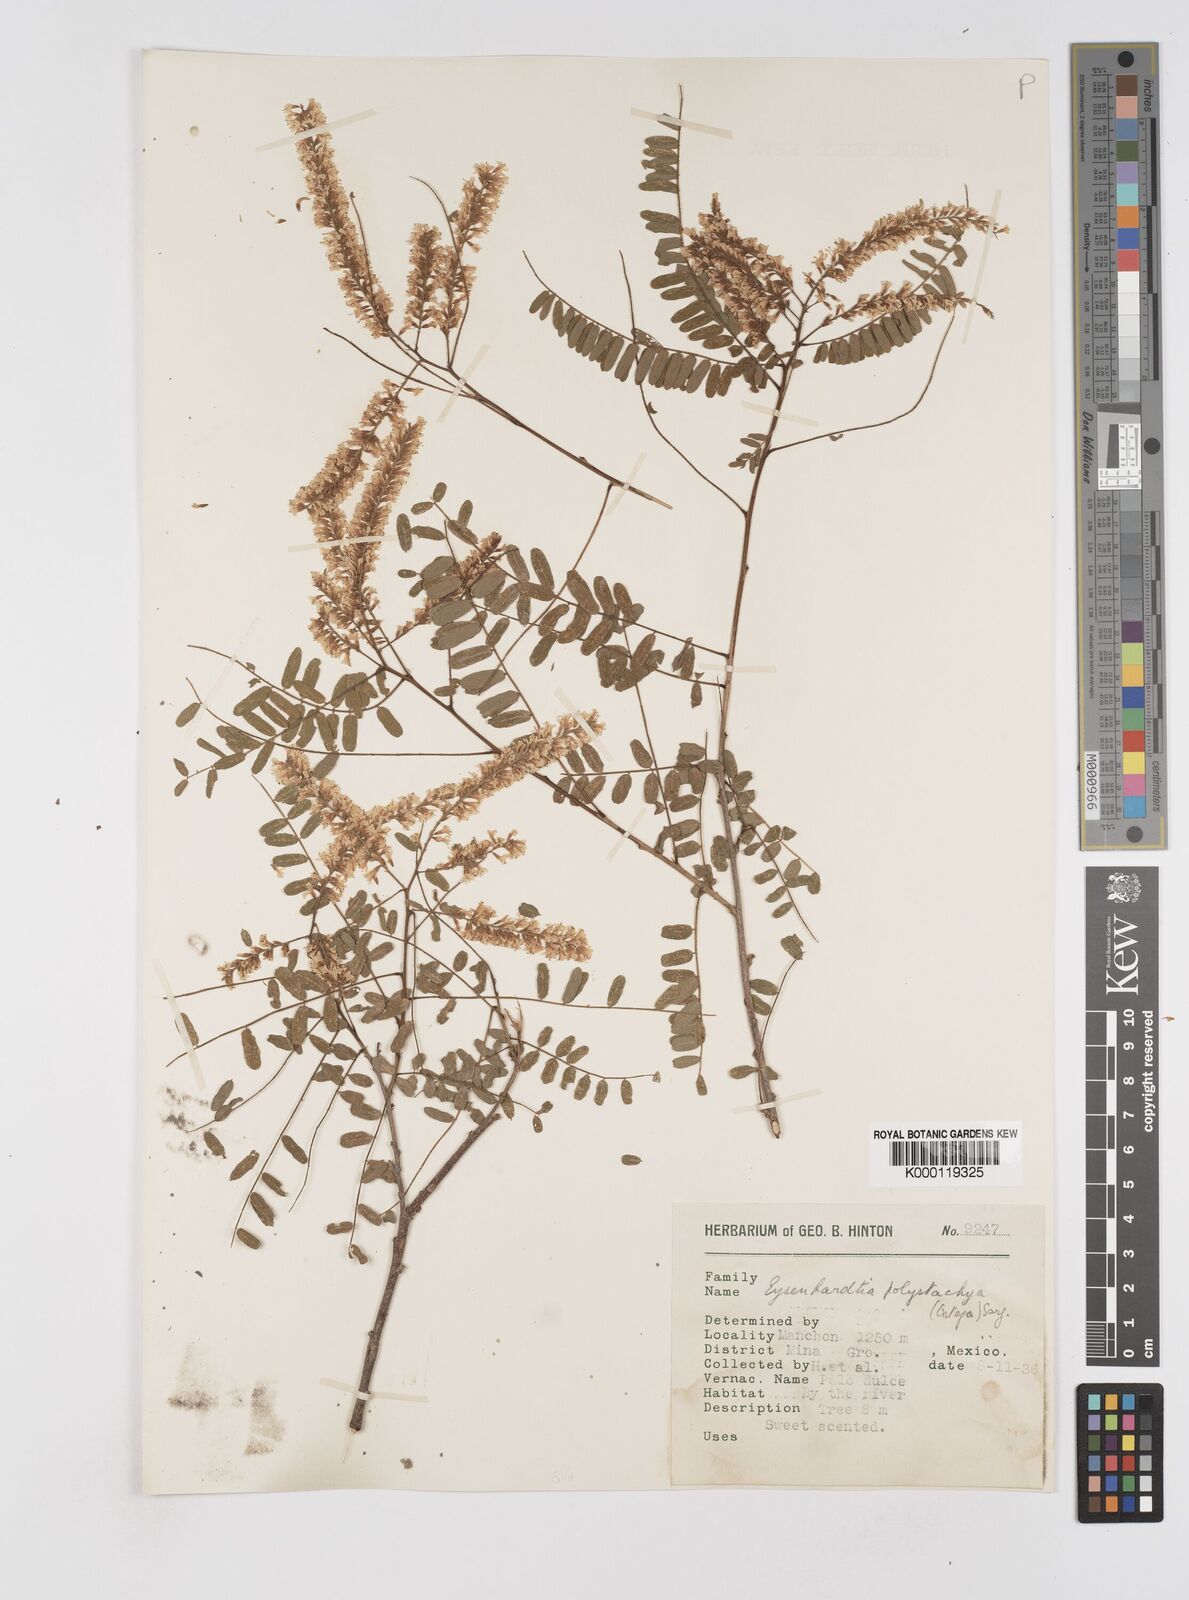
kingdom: Plantae
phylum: Tracheophyta
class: Magnoliopsida
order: Fabales
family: Fabaceae
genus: Eysenhardtia
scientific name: Eysenhardtia polystachya
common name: Kidneywood
